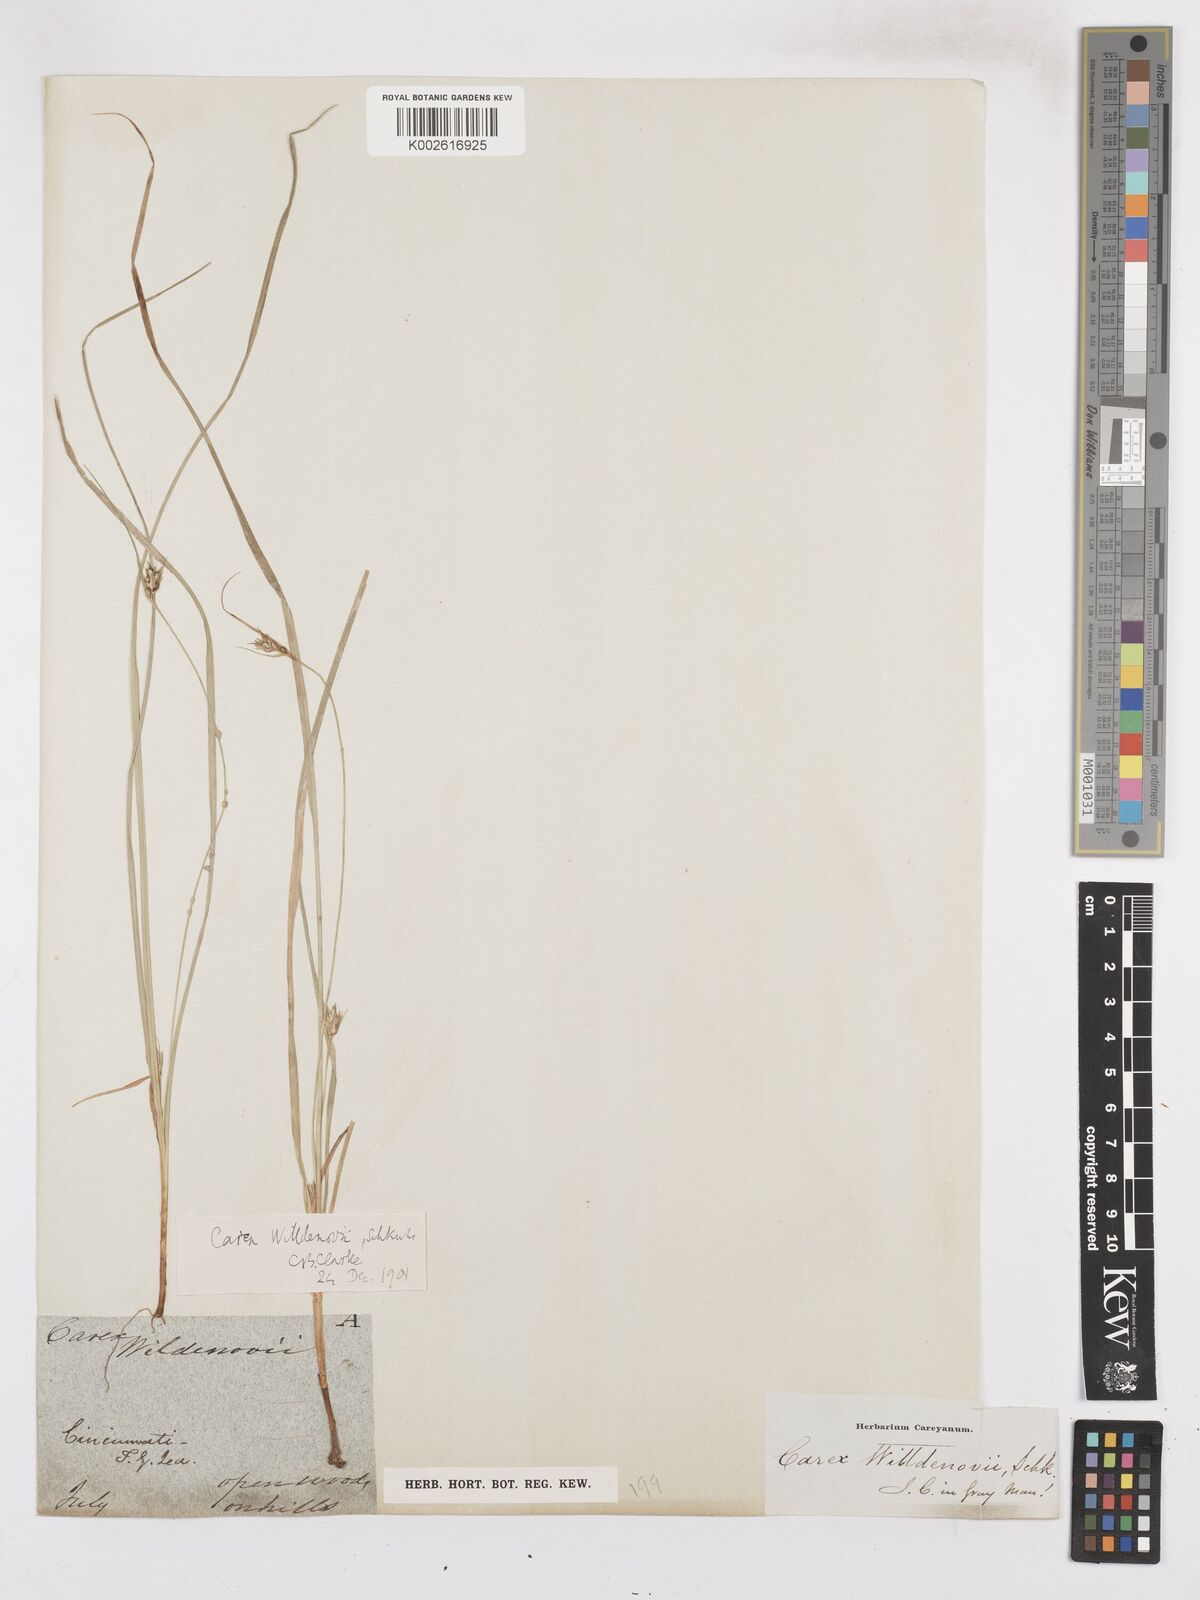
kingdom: Plantae
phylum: Tracheophyta
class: Liliopsida
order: Poales
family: Cyperaceae
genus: Carex
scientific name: Carex willdenowii
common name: Willdenow's sedge
